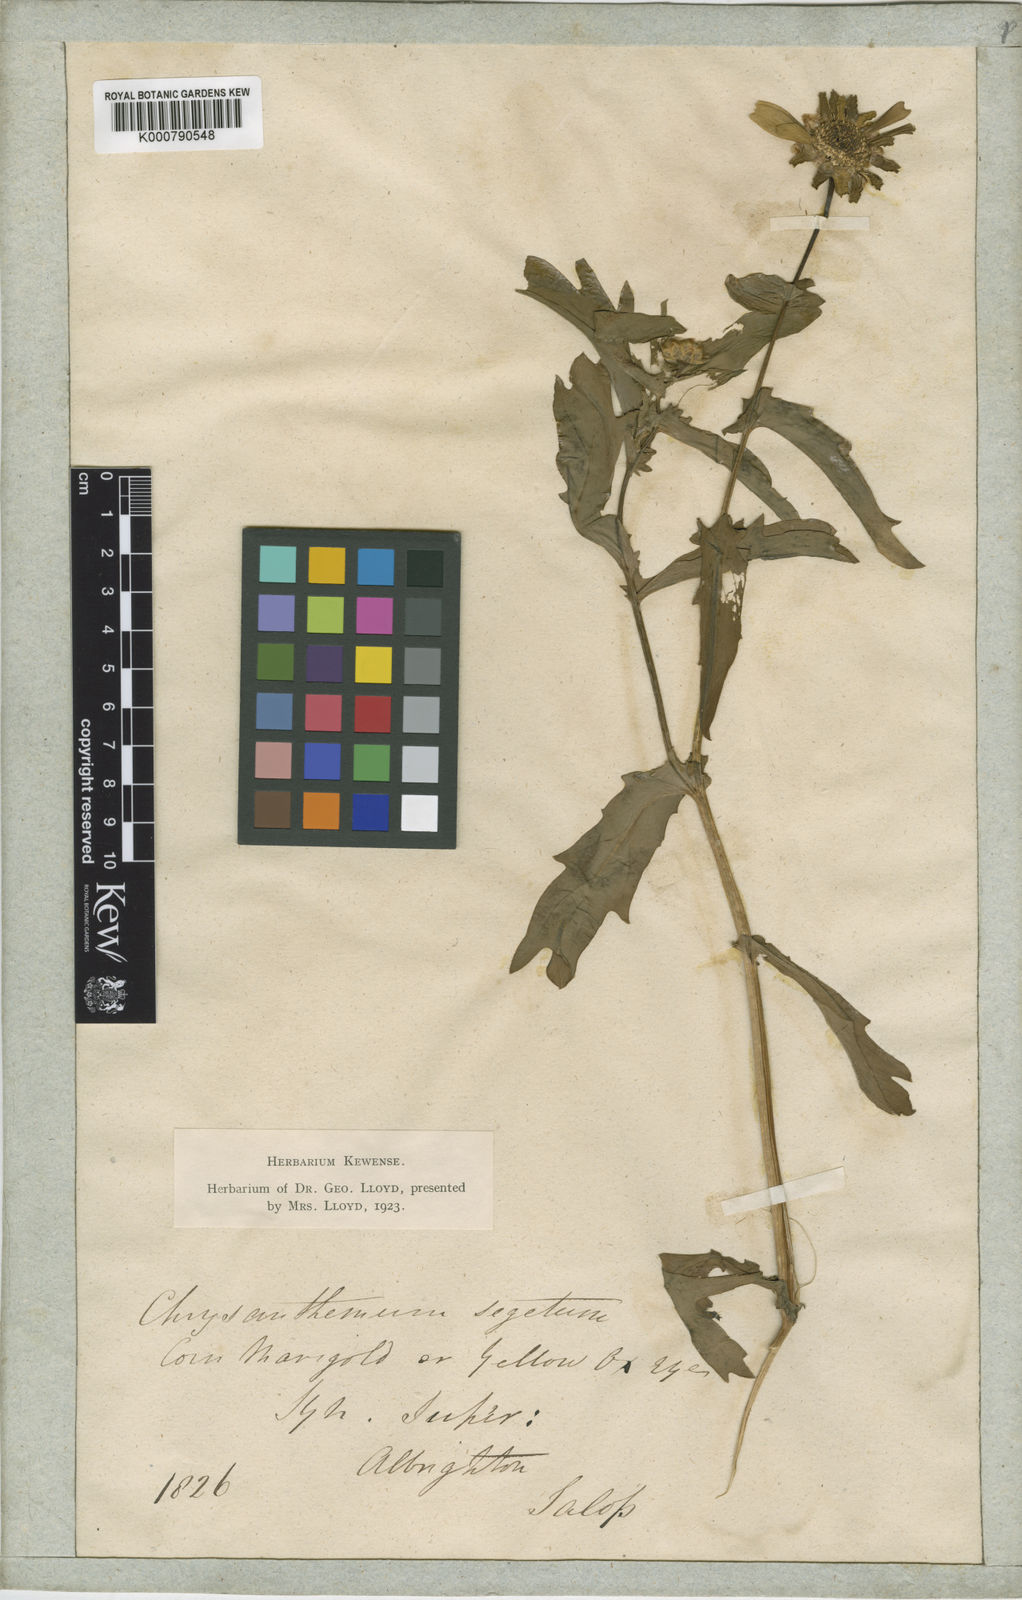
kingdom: Plantae
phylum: Tracheophyta
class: Magnoliopsida
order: Asterales
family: Asteraceae
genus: Glebionis
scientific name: Glebionis
